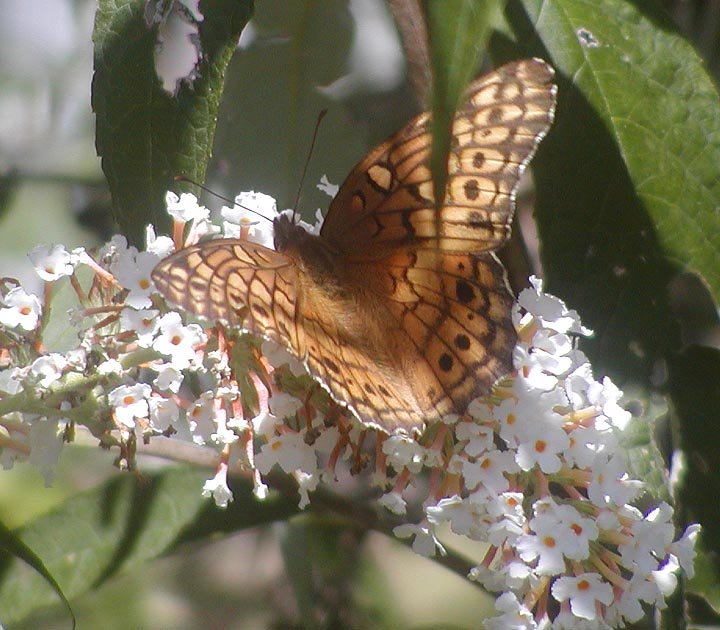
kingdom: Animalia
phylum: Arthropoda
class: Insecta
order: Lepidoptera
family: Nymphalidae
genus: Euptoieta
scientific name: Euptoieta claudia
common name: Variegated Fritillary
